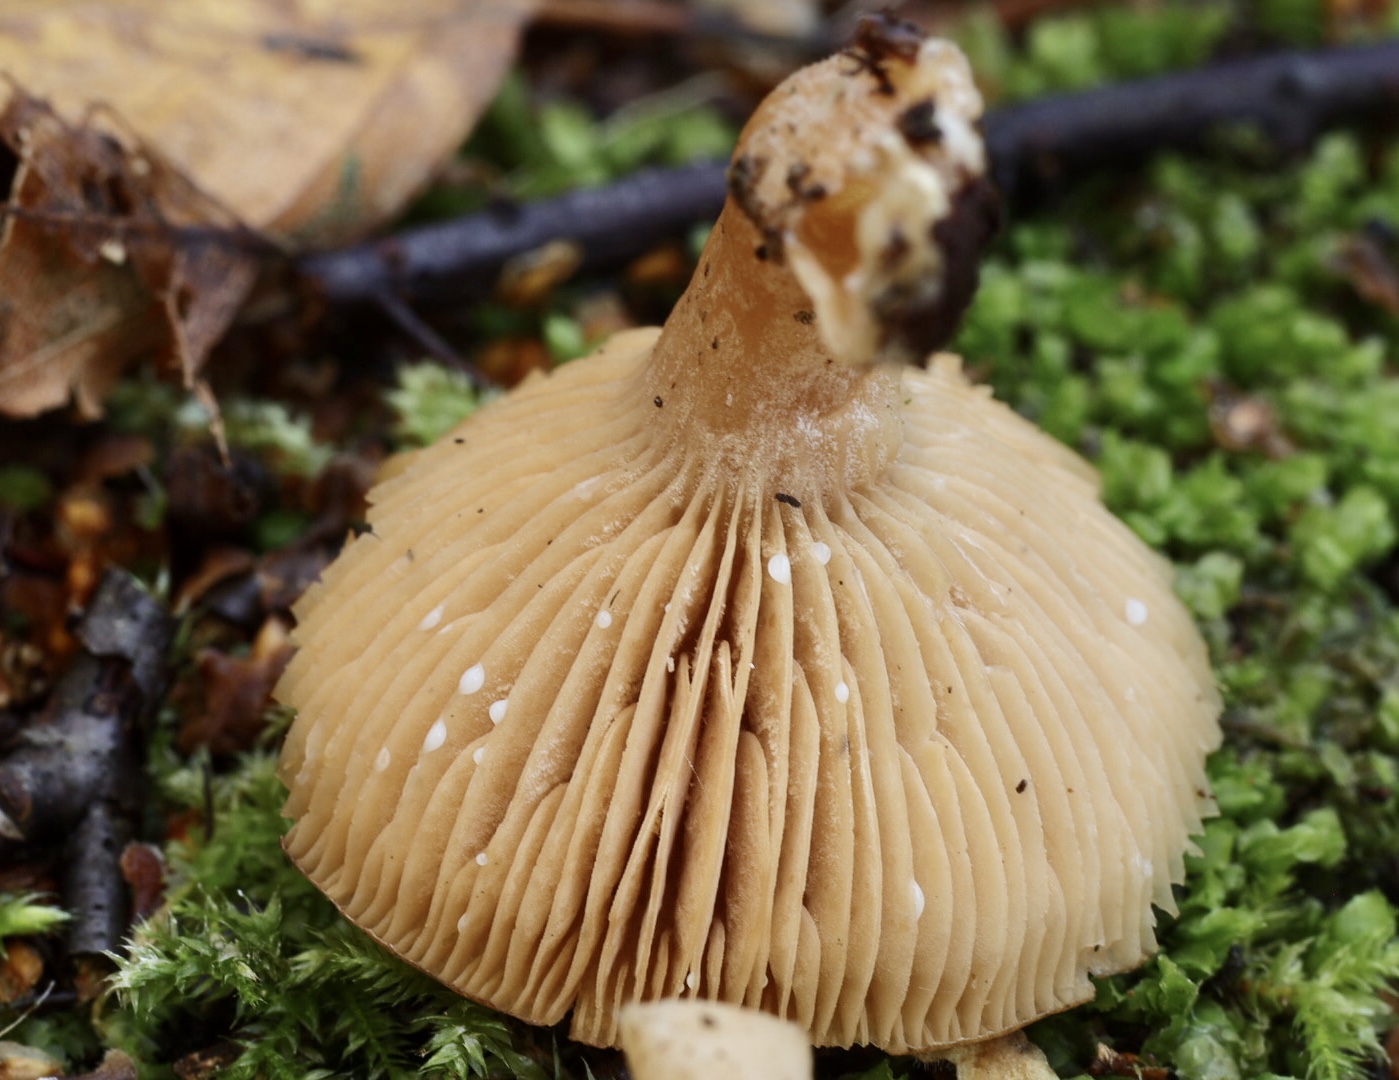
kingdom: Fungi
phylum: Basidiomycota
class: Agaricomycetes
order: Russulales
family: Russulaceae
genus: Lactarius
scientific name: Lactarius
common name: mælkehat
